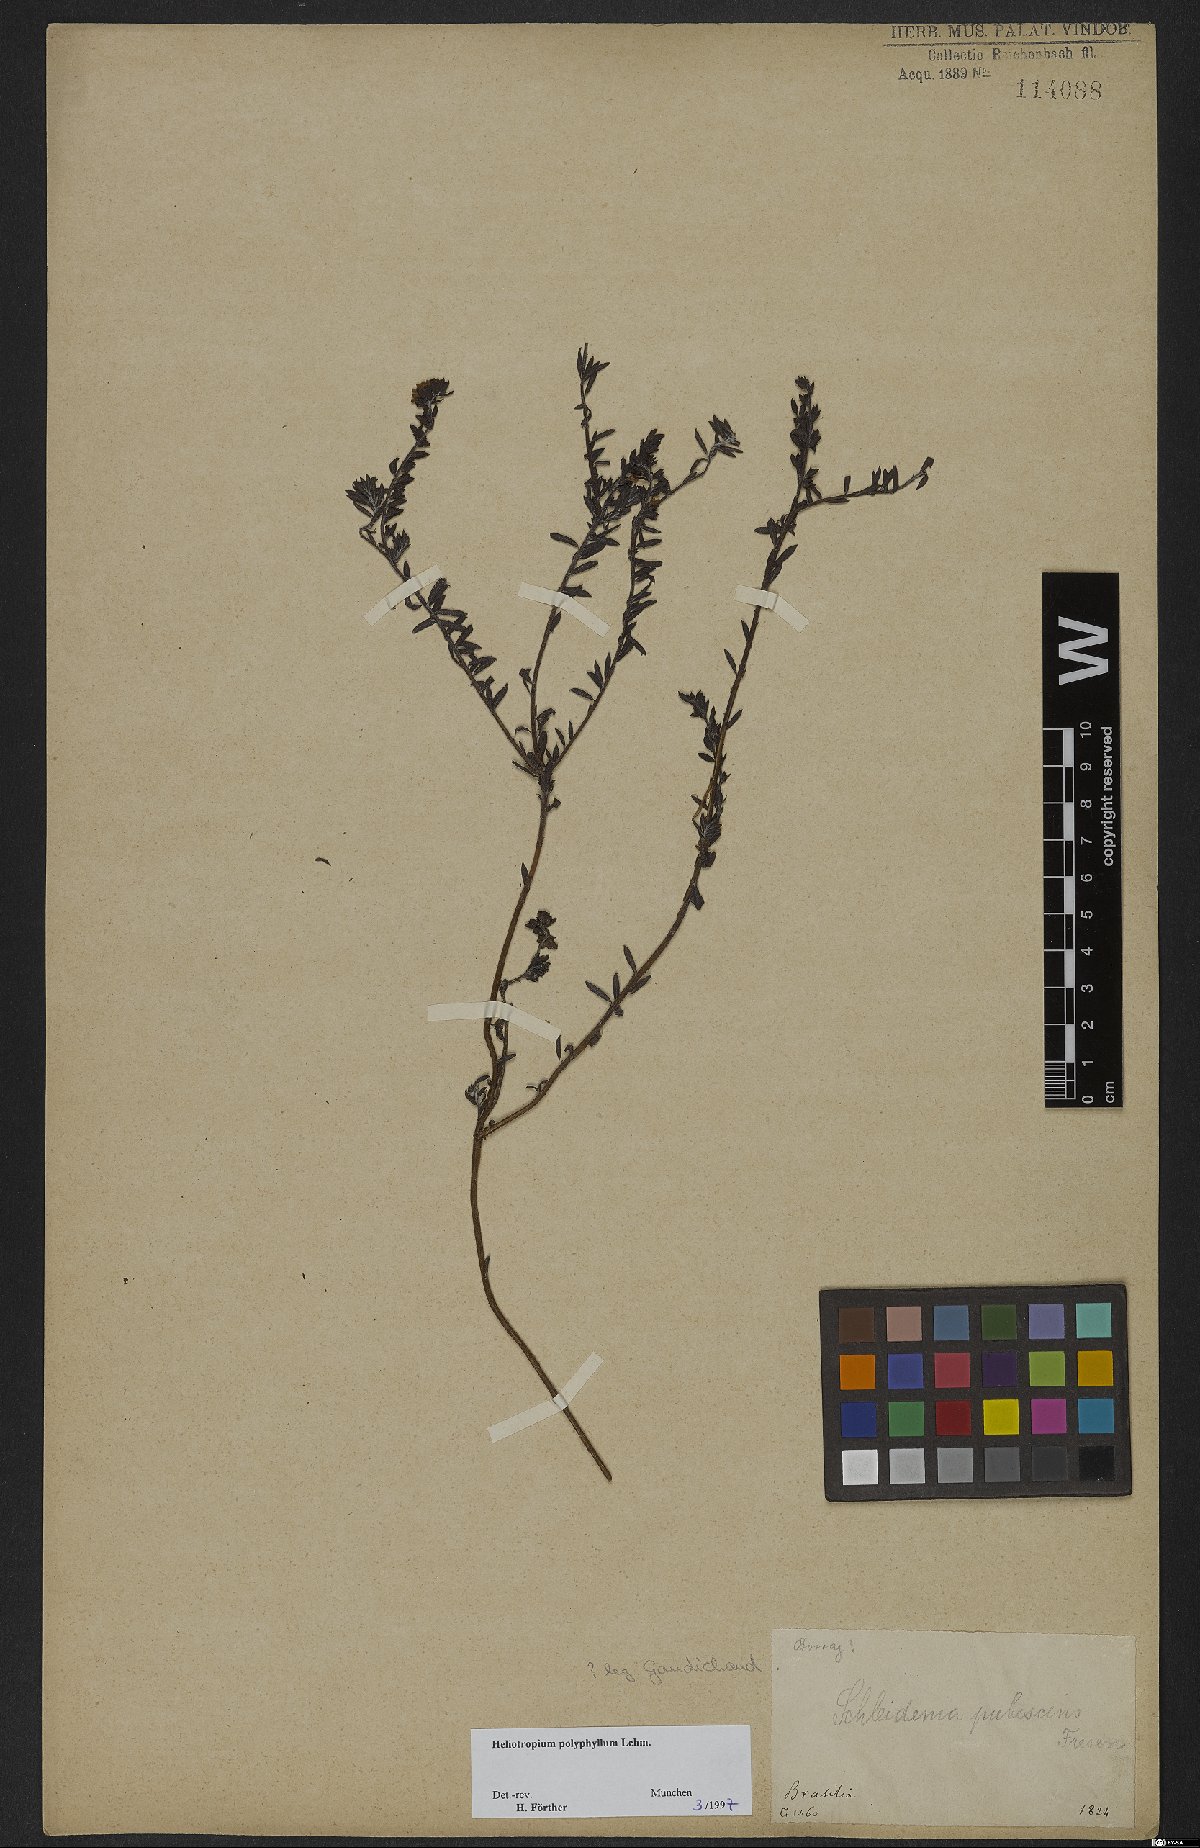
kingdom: Plantae
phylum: Tracheophyta
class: Magnoliopsida
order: Boraginales
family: Heliotropiaceae
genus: Euploca
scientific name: Euploca polyphylla
